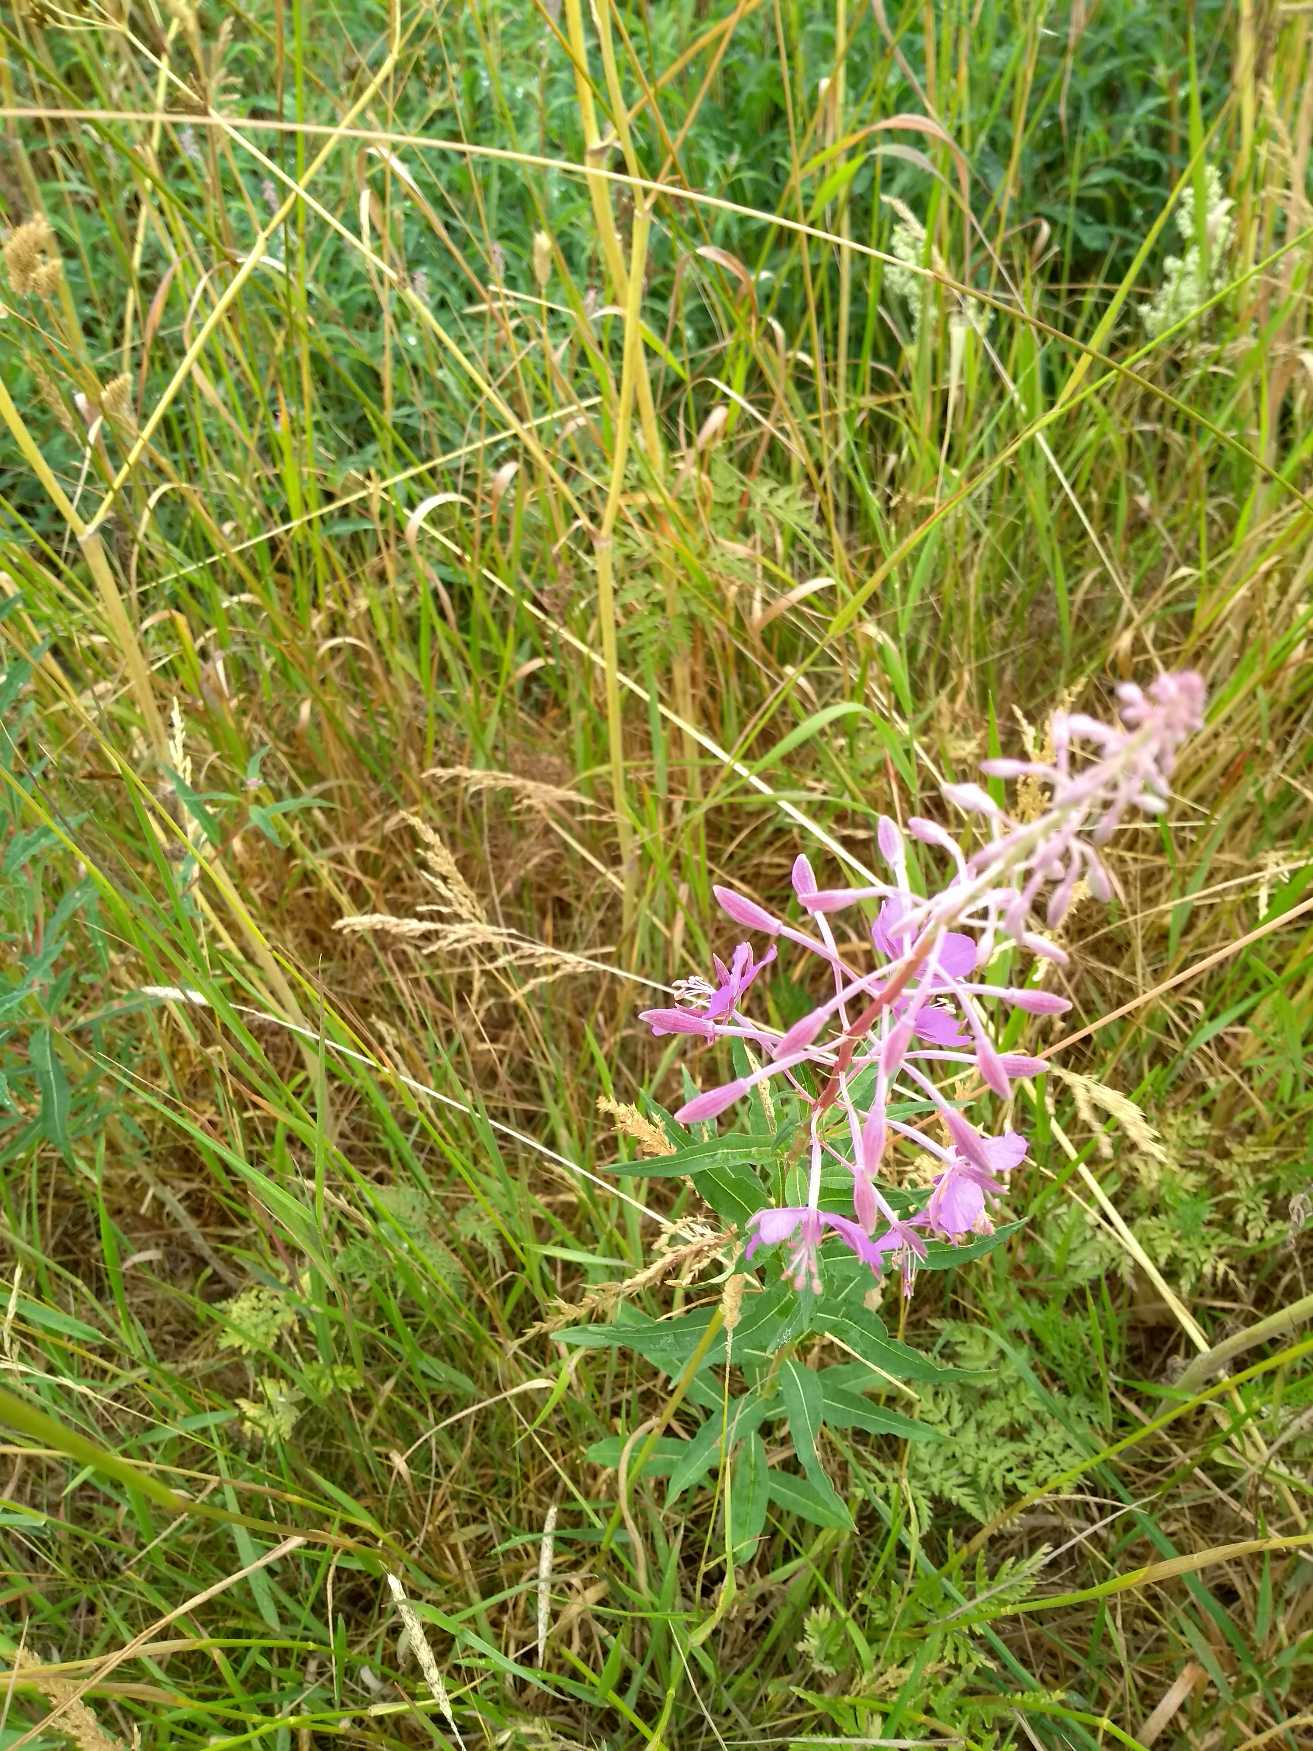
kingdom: Plantae
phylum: Tracheophyta
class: Magnoliopsida
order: Myrtales
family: Onagraceae
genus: Chamaenerion
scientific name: Chamaenerion angustifolium
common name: Gederams
